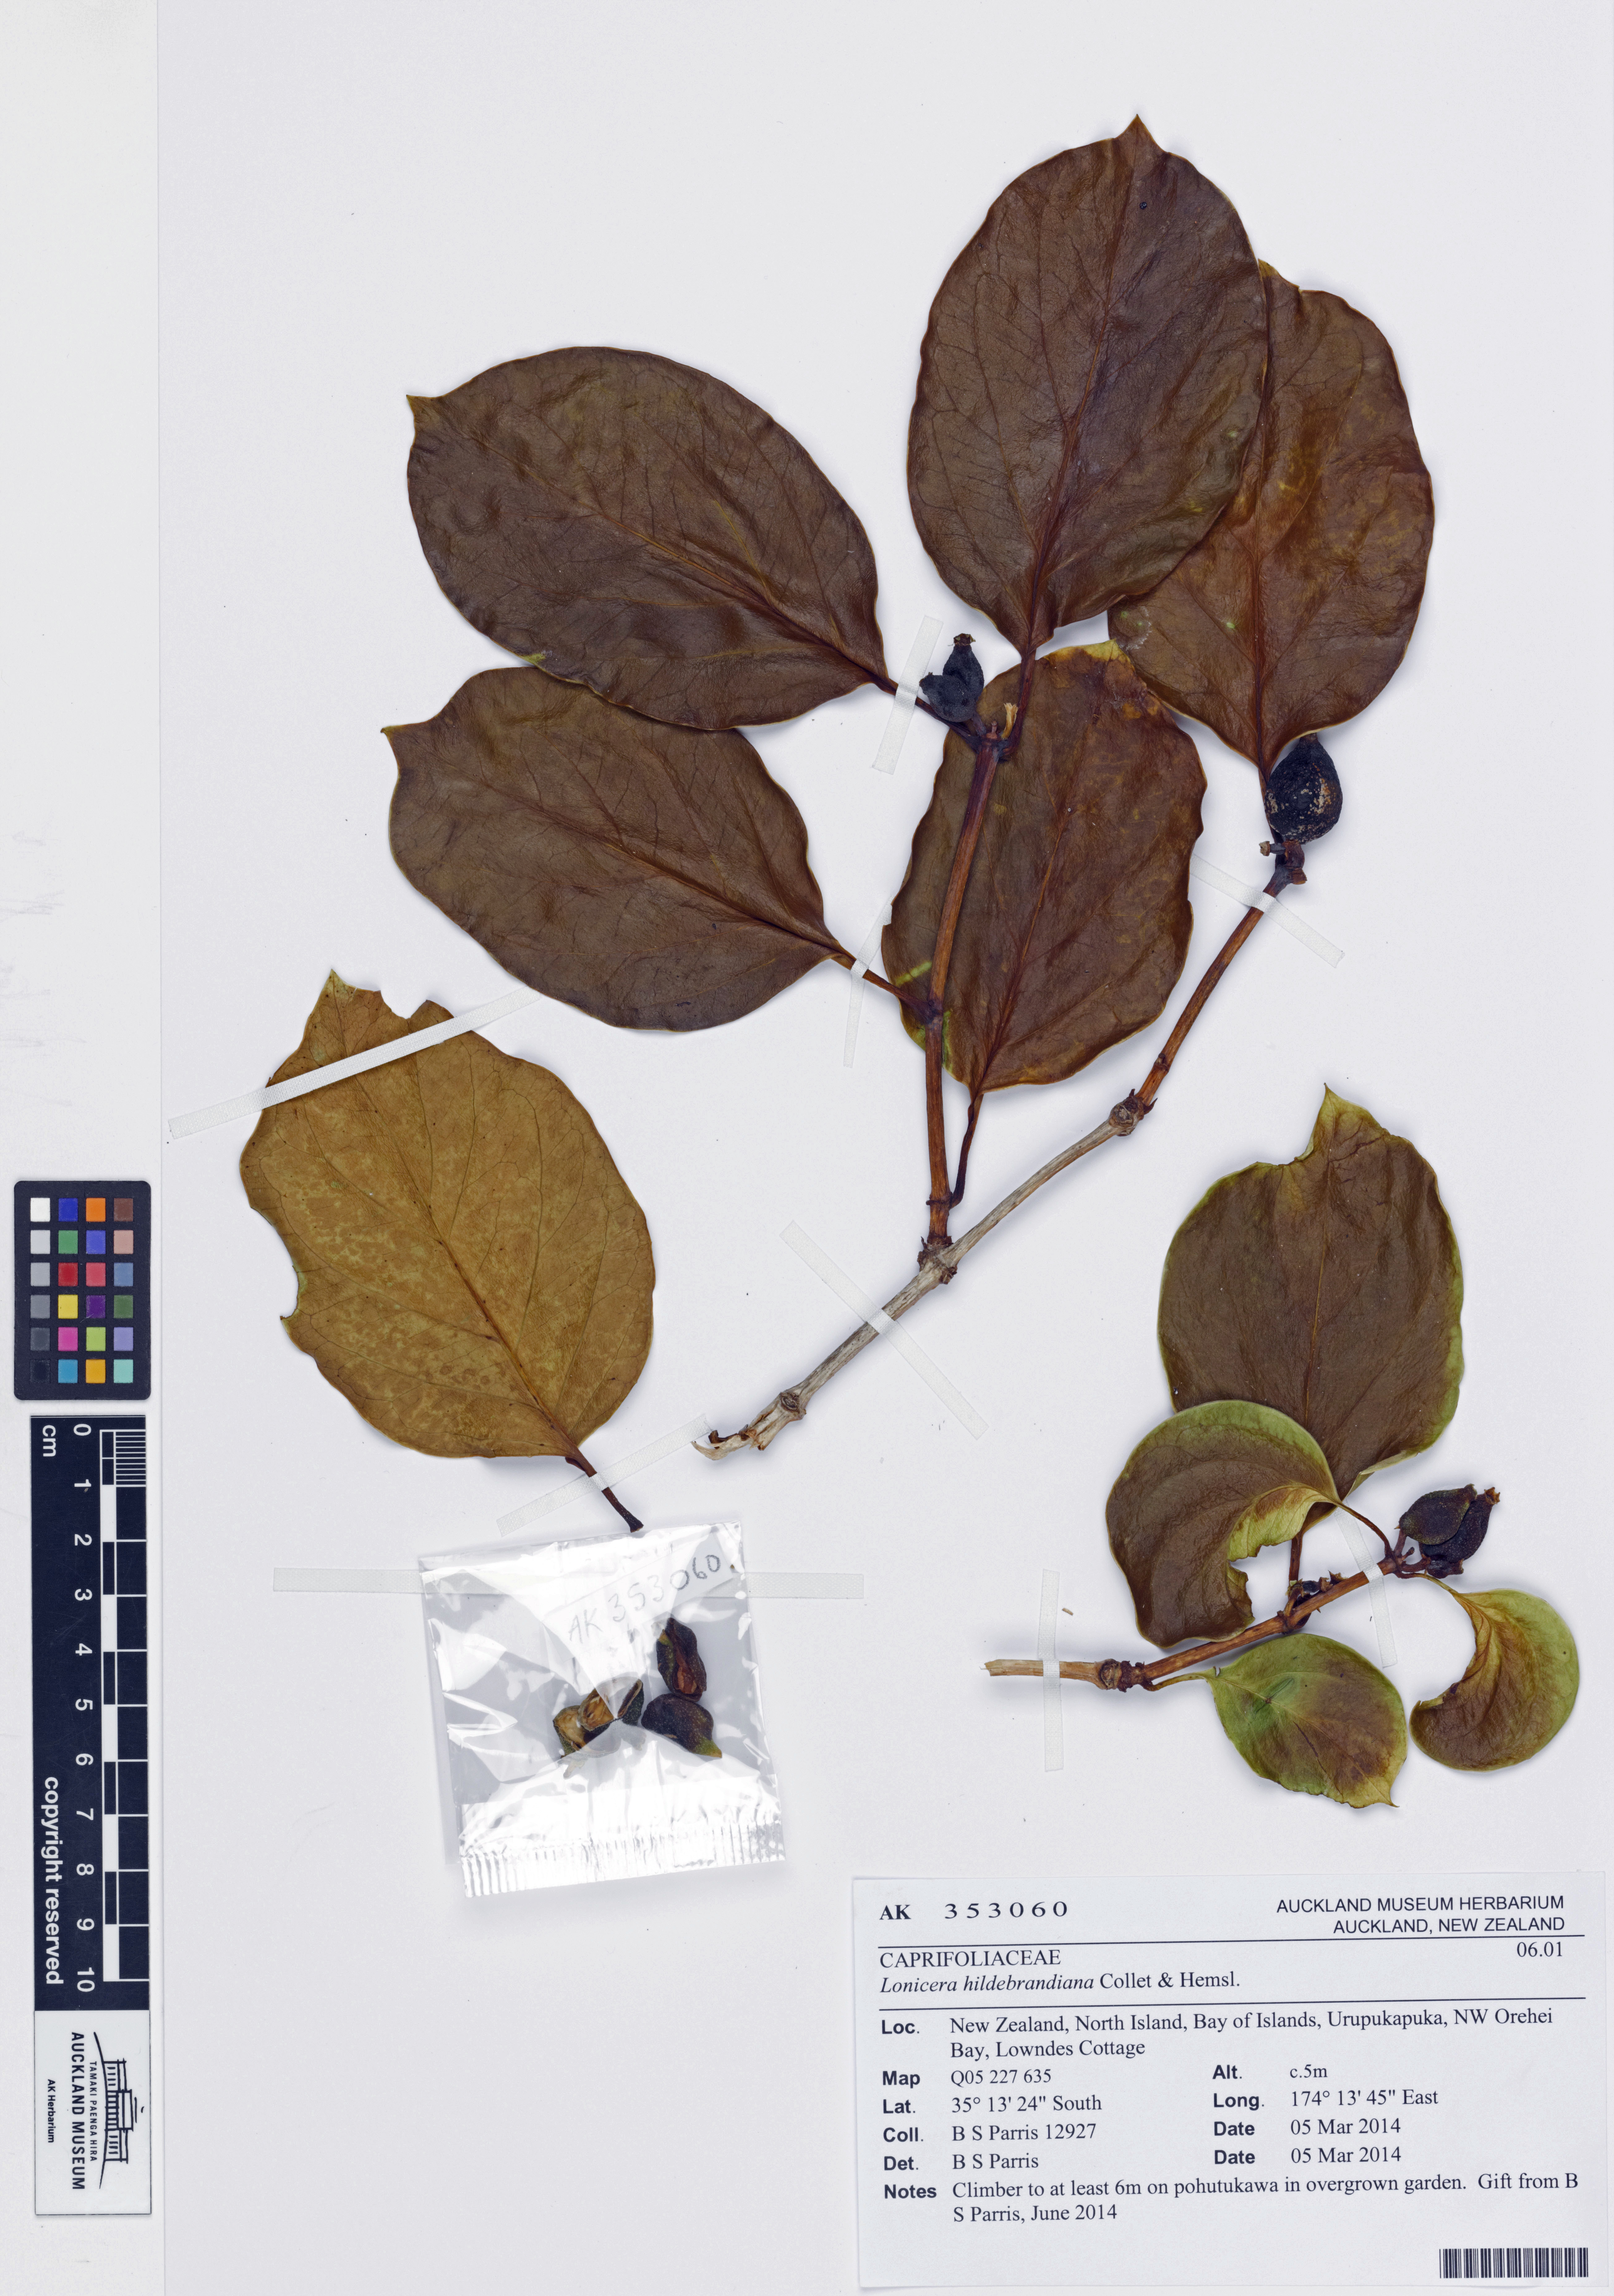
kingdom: Plantae
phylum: Tracheophyta
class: Magnoliopsida
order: Dipsacales
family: Caprifoliaceae
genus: Lonicera
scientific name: Lonicera hildebrandiana
